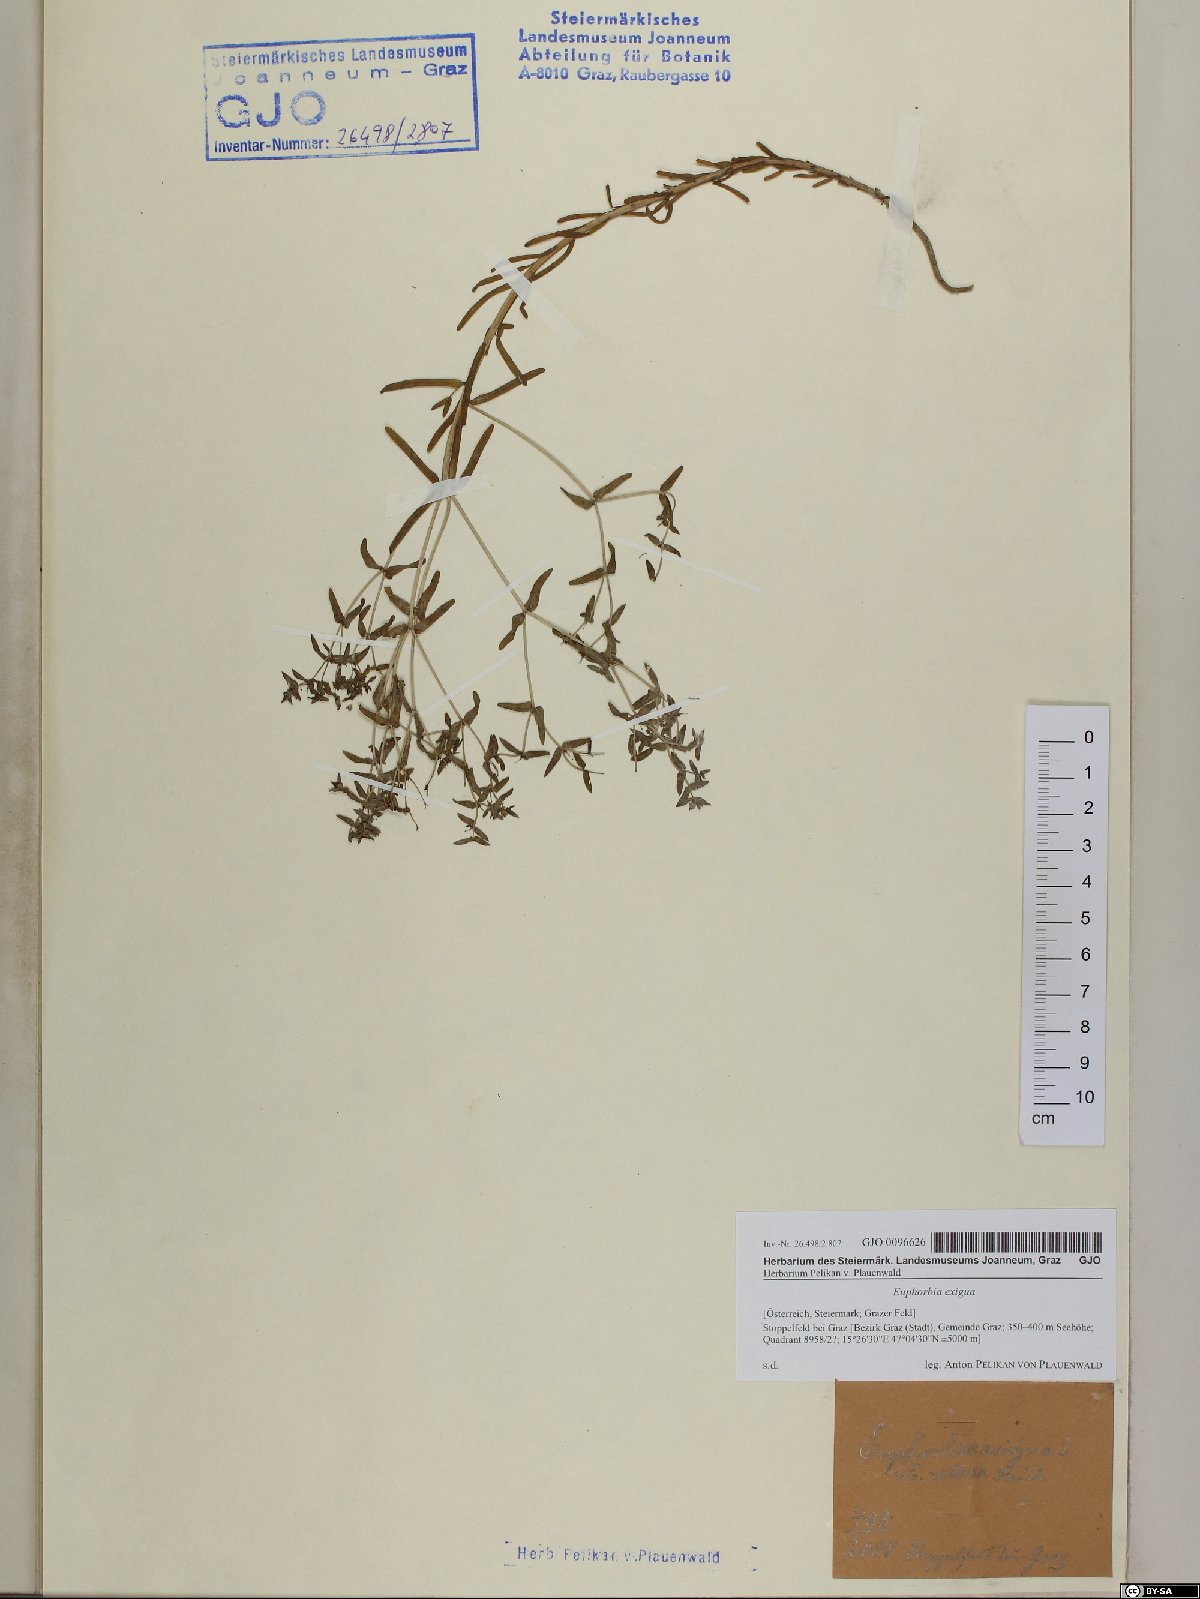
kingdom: Plantae
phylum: Tracheophyta
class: Magnoliopsida
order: Malpighiales
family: Euphorbiaceae
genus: Euphorbia
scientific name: Euphorbia exigua
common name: Dwarf spurge
